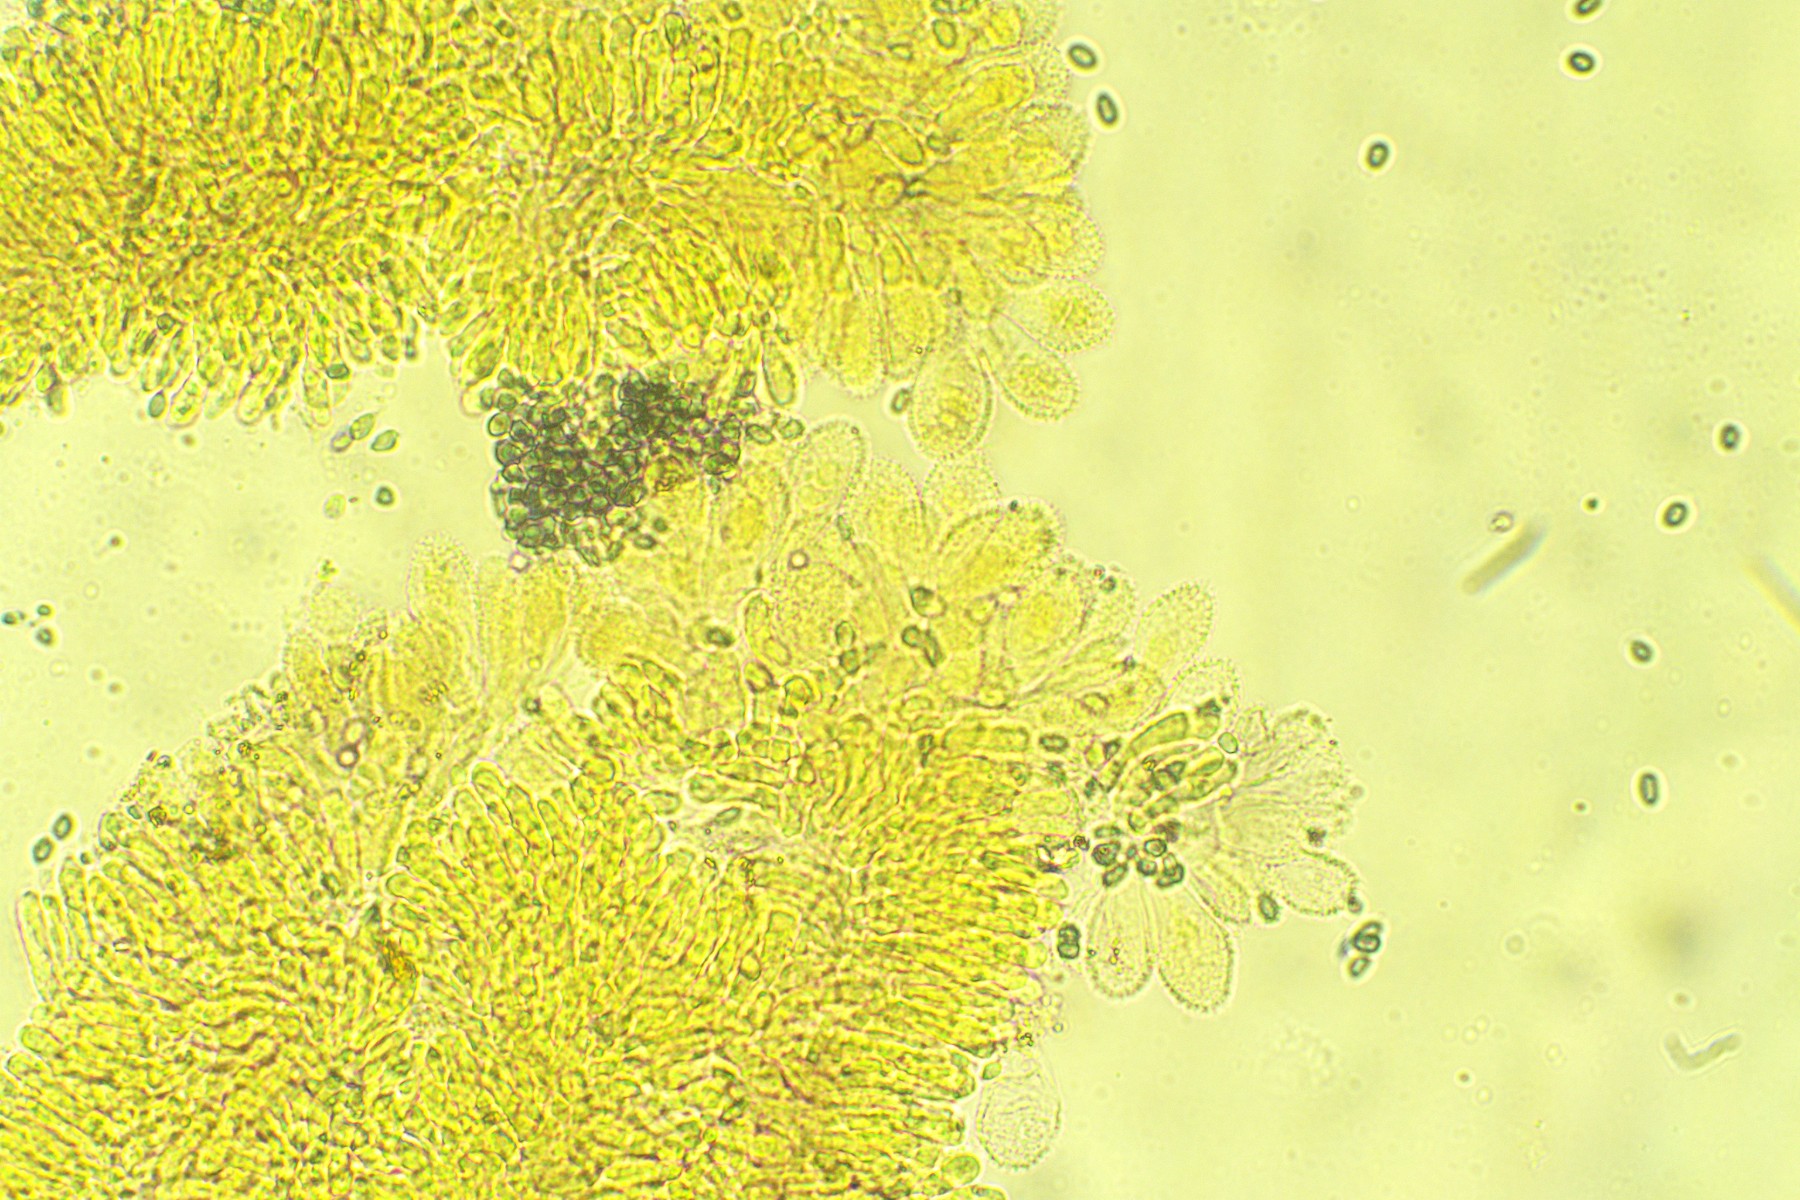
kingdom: Fungi
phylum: Basidiomycota
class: Agaricomycetes
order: Agaricales
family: Mycenaceae
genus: Mycena
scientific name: Mycena arcangeliana
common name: oliven-huesvamp
